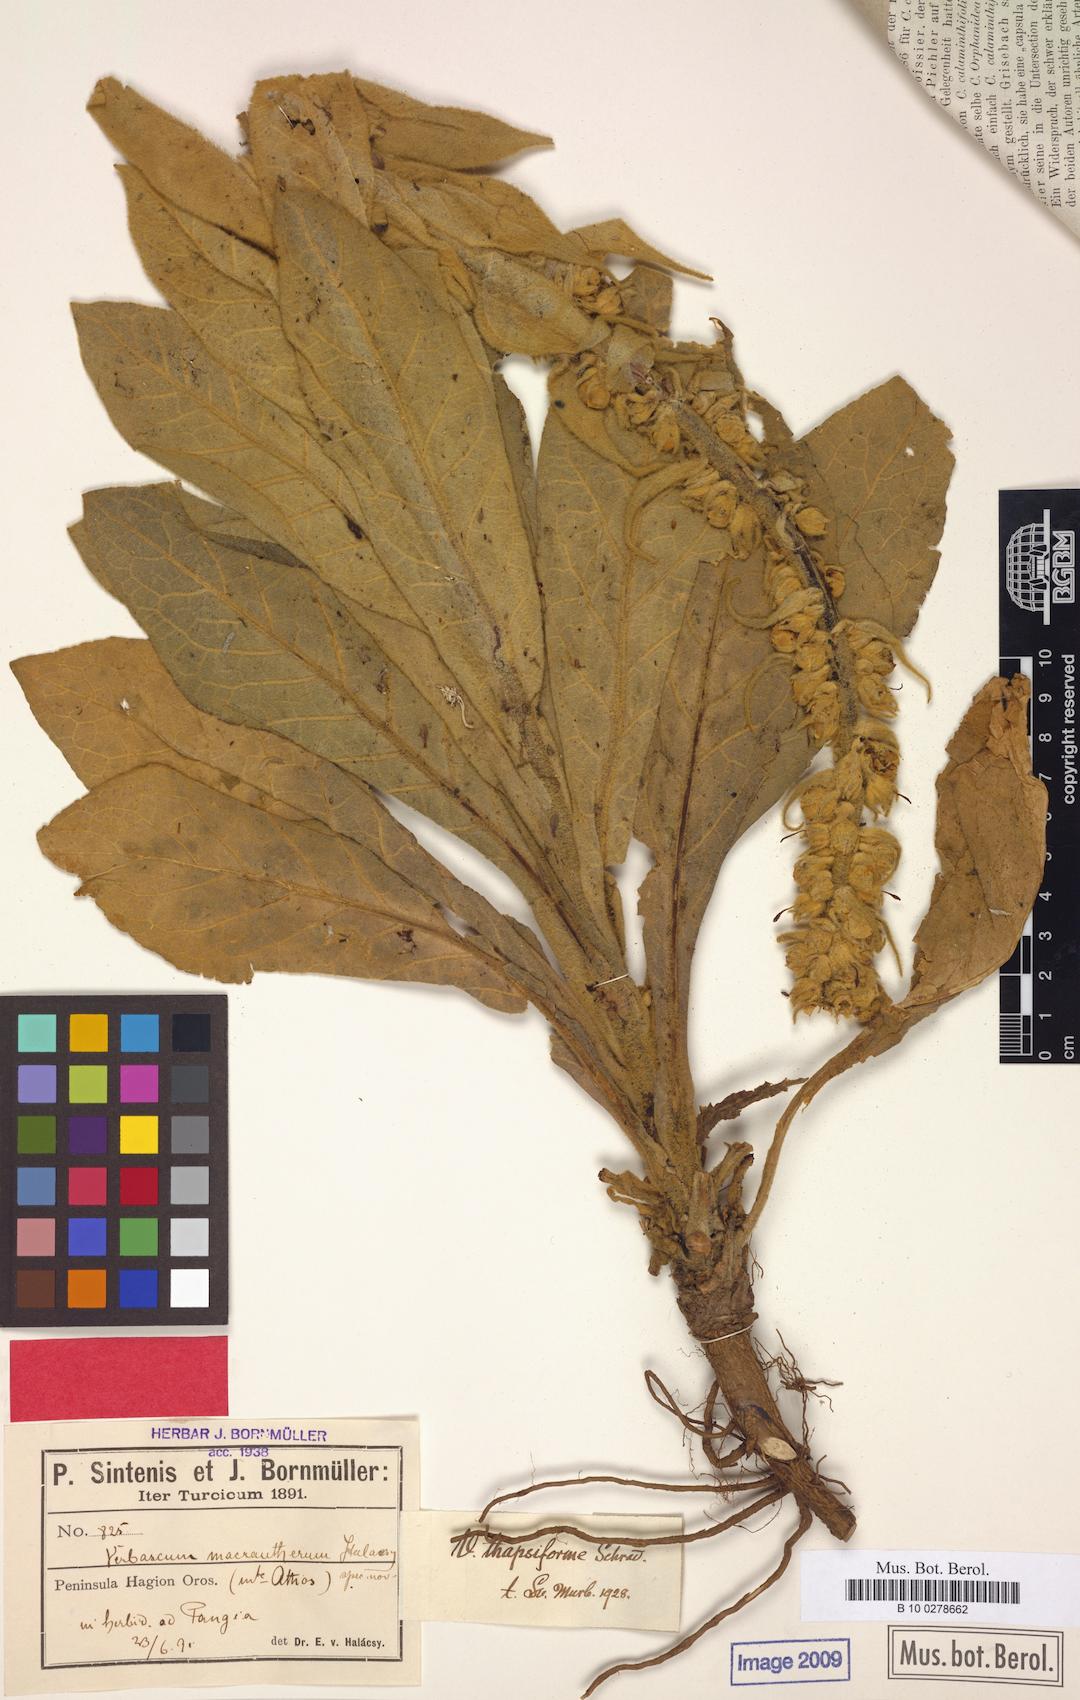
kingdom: Plantae
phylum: Tracheophyta
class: Magnoliopsida
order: Lamiales
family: Scrophulariaceae
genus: Verbascum
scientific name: Verbascum densiflorum
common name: Dense-flowered mullein
